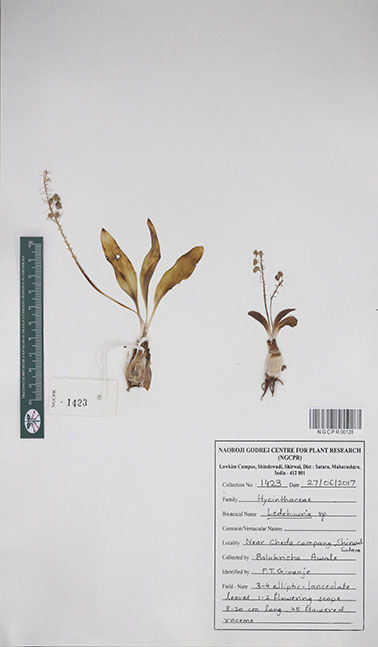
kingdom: Plantae
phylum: Tracheophyta
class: Liliopsida
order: Asparagales
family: Asparagaceae
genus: Ledebouria
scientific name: Ledebouria
